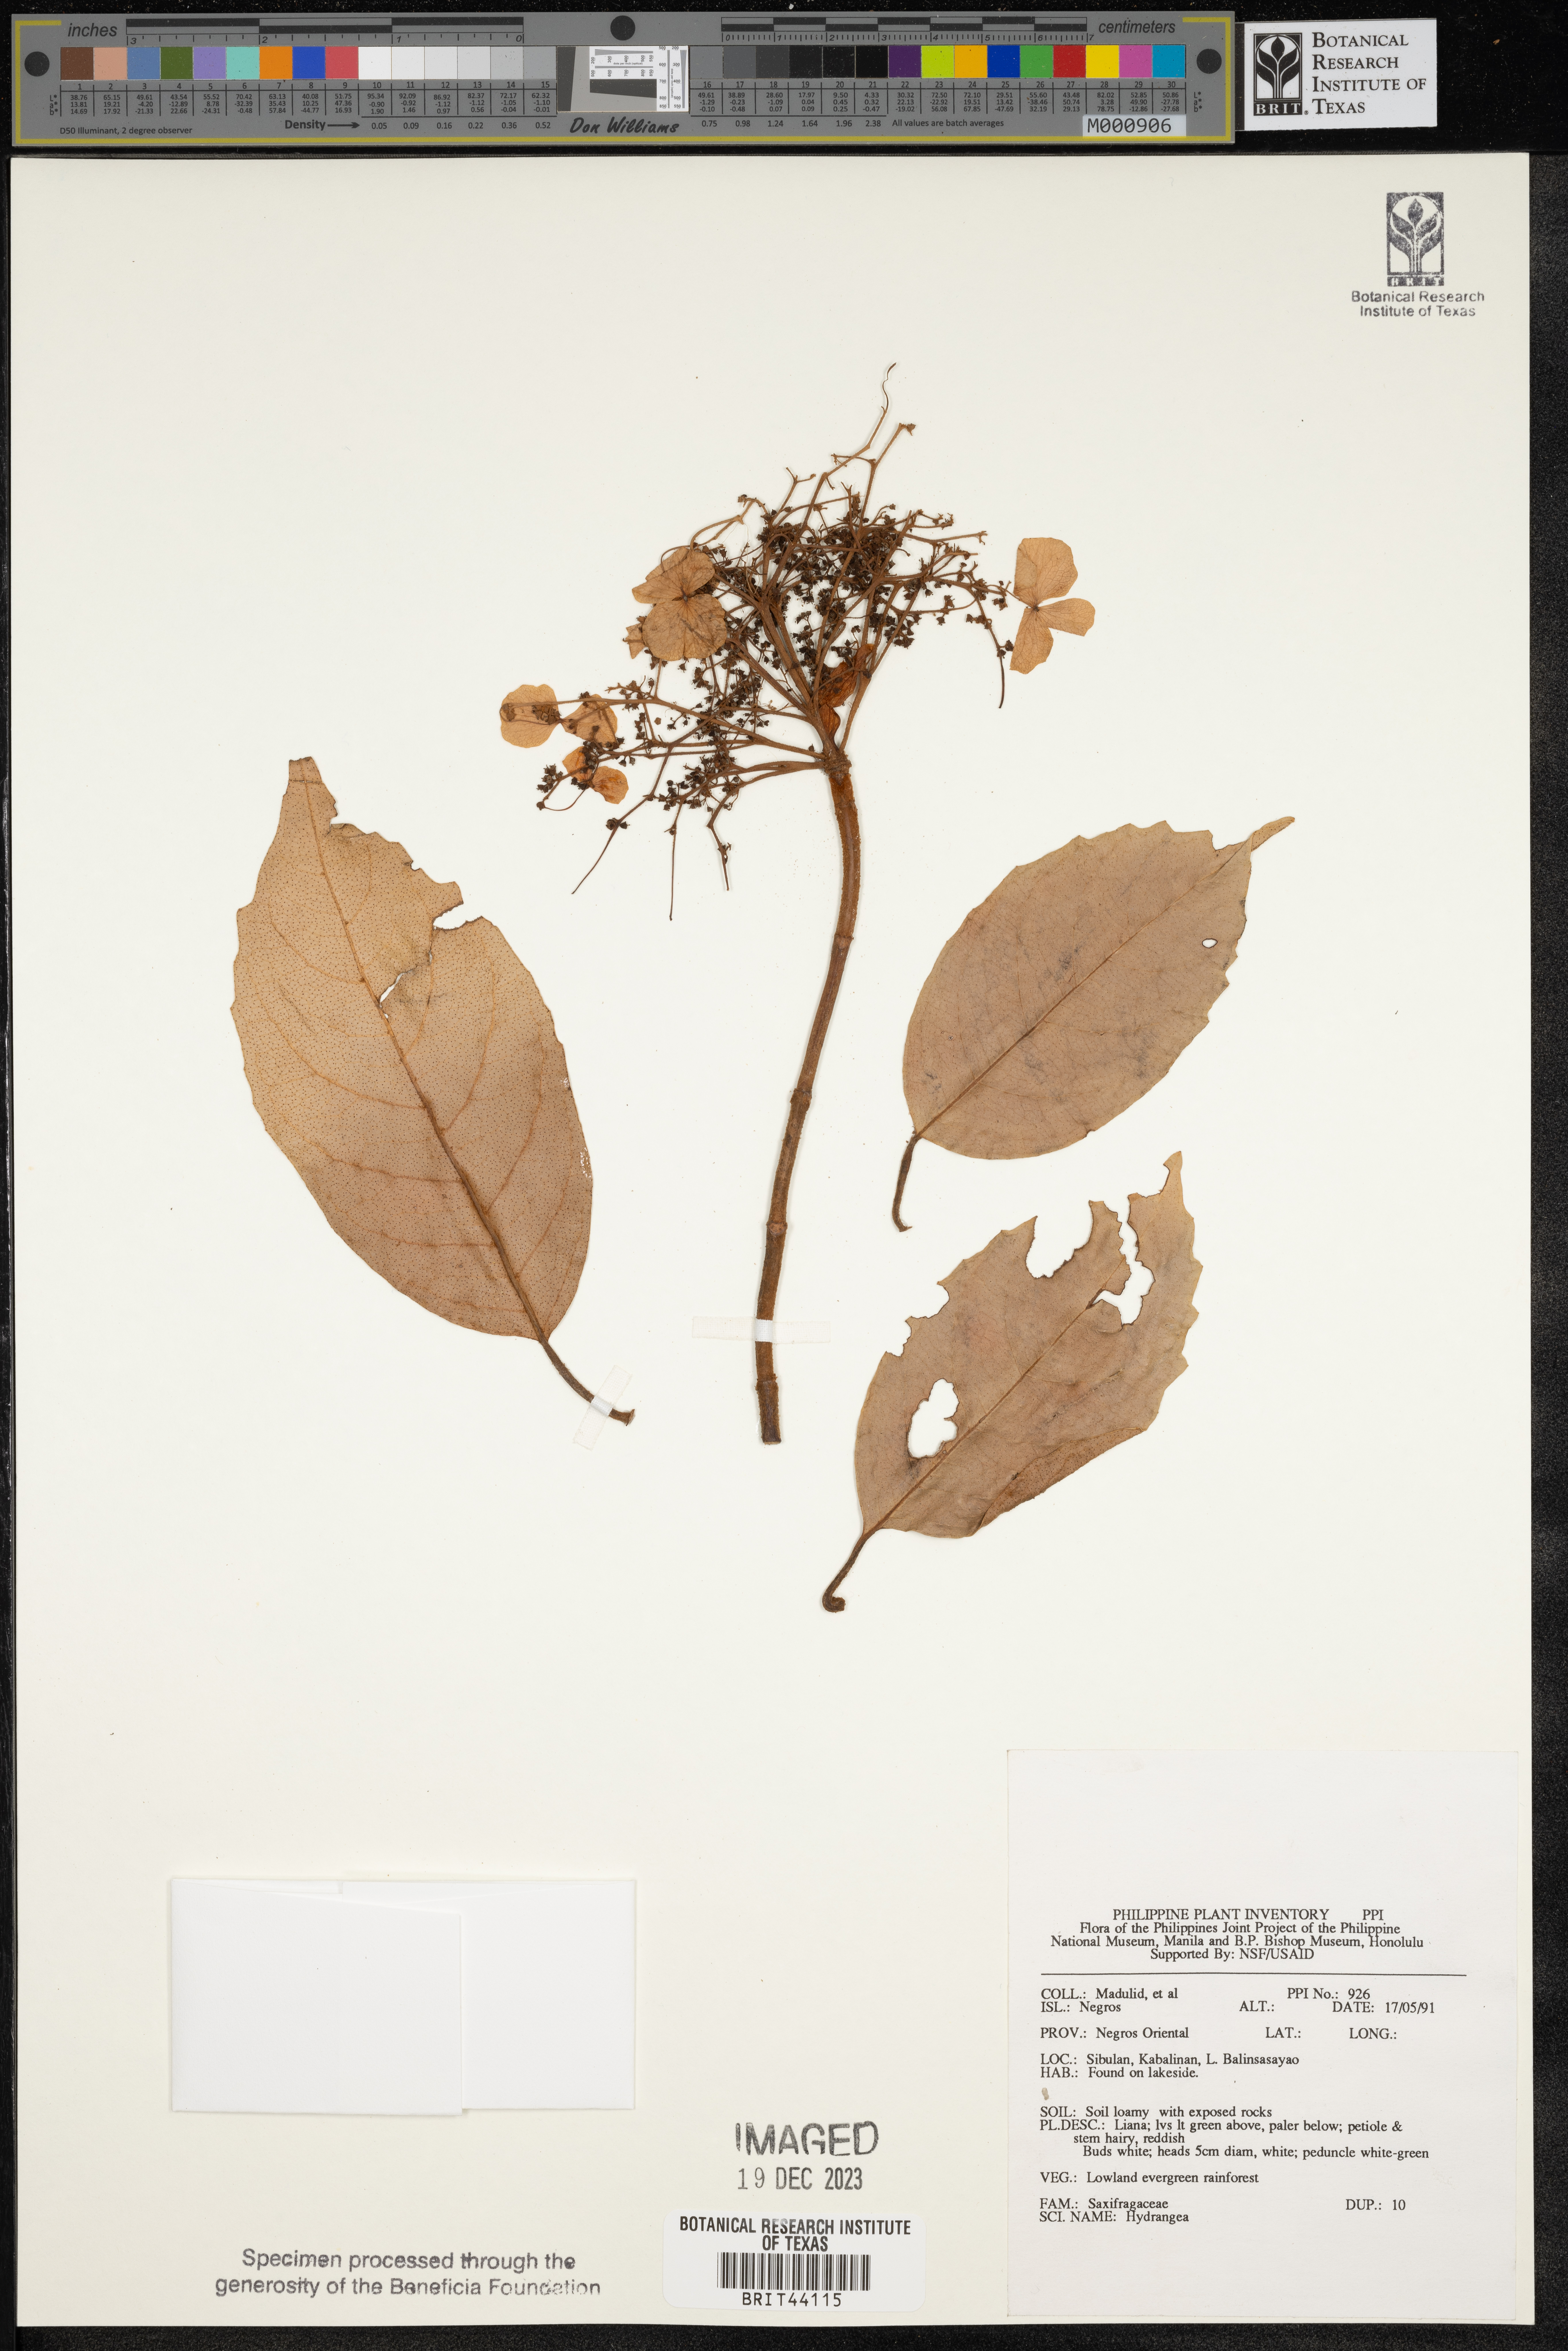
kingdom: Plantae
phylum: Tracheophyta
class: Magnoliopsida
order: Cornales
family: Hydrangeaceae
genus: Hydrangea
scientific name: Hydrangea
